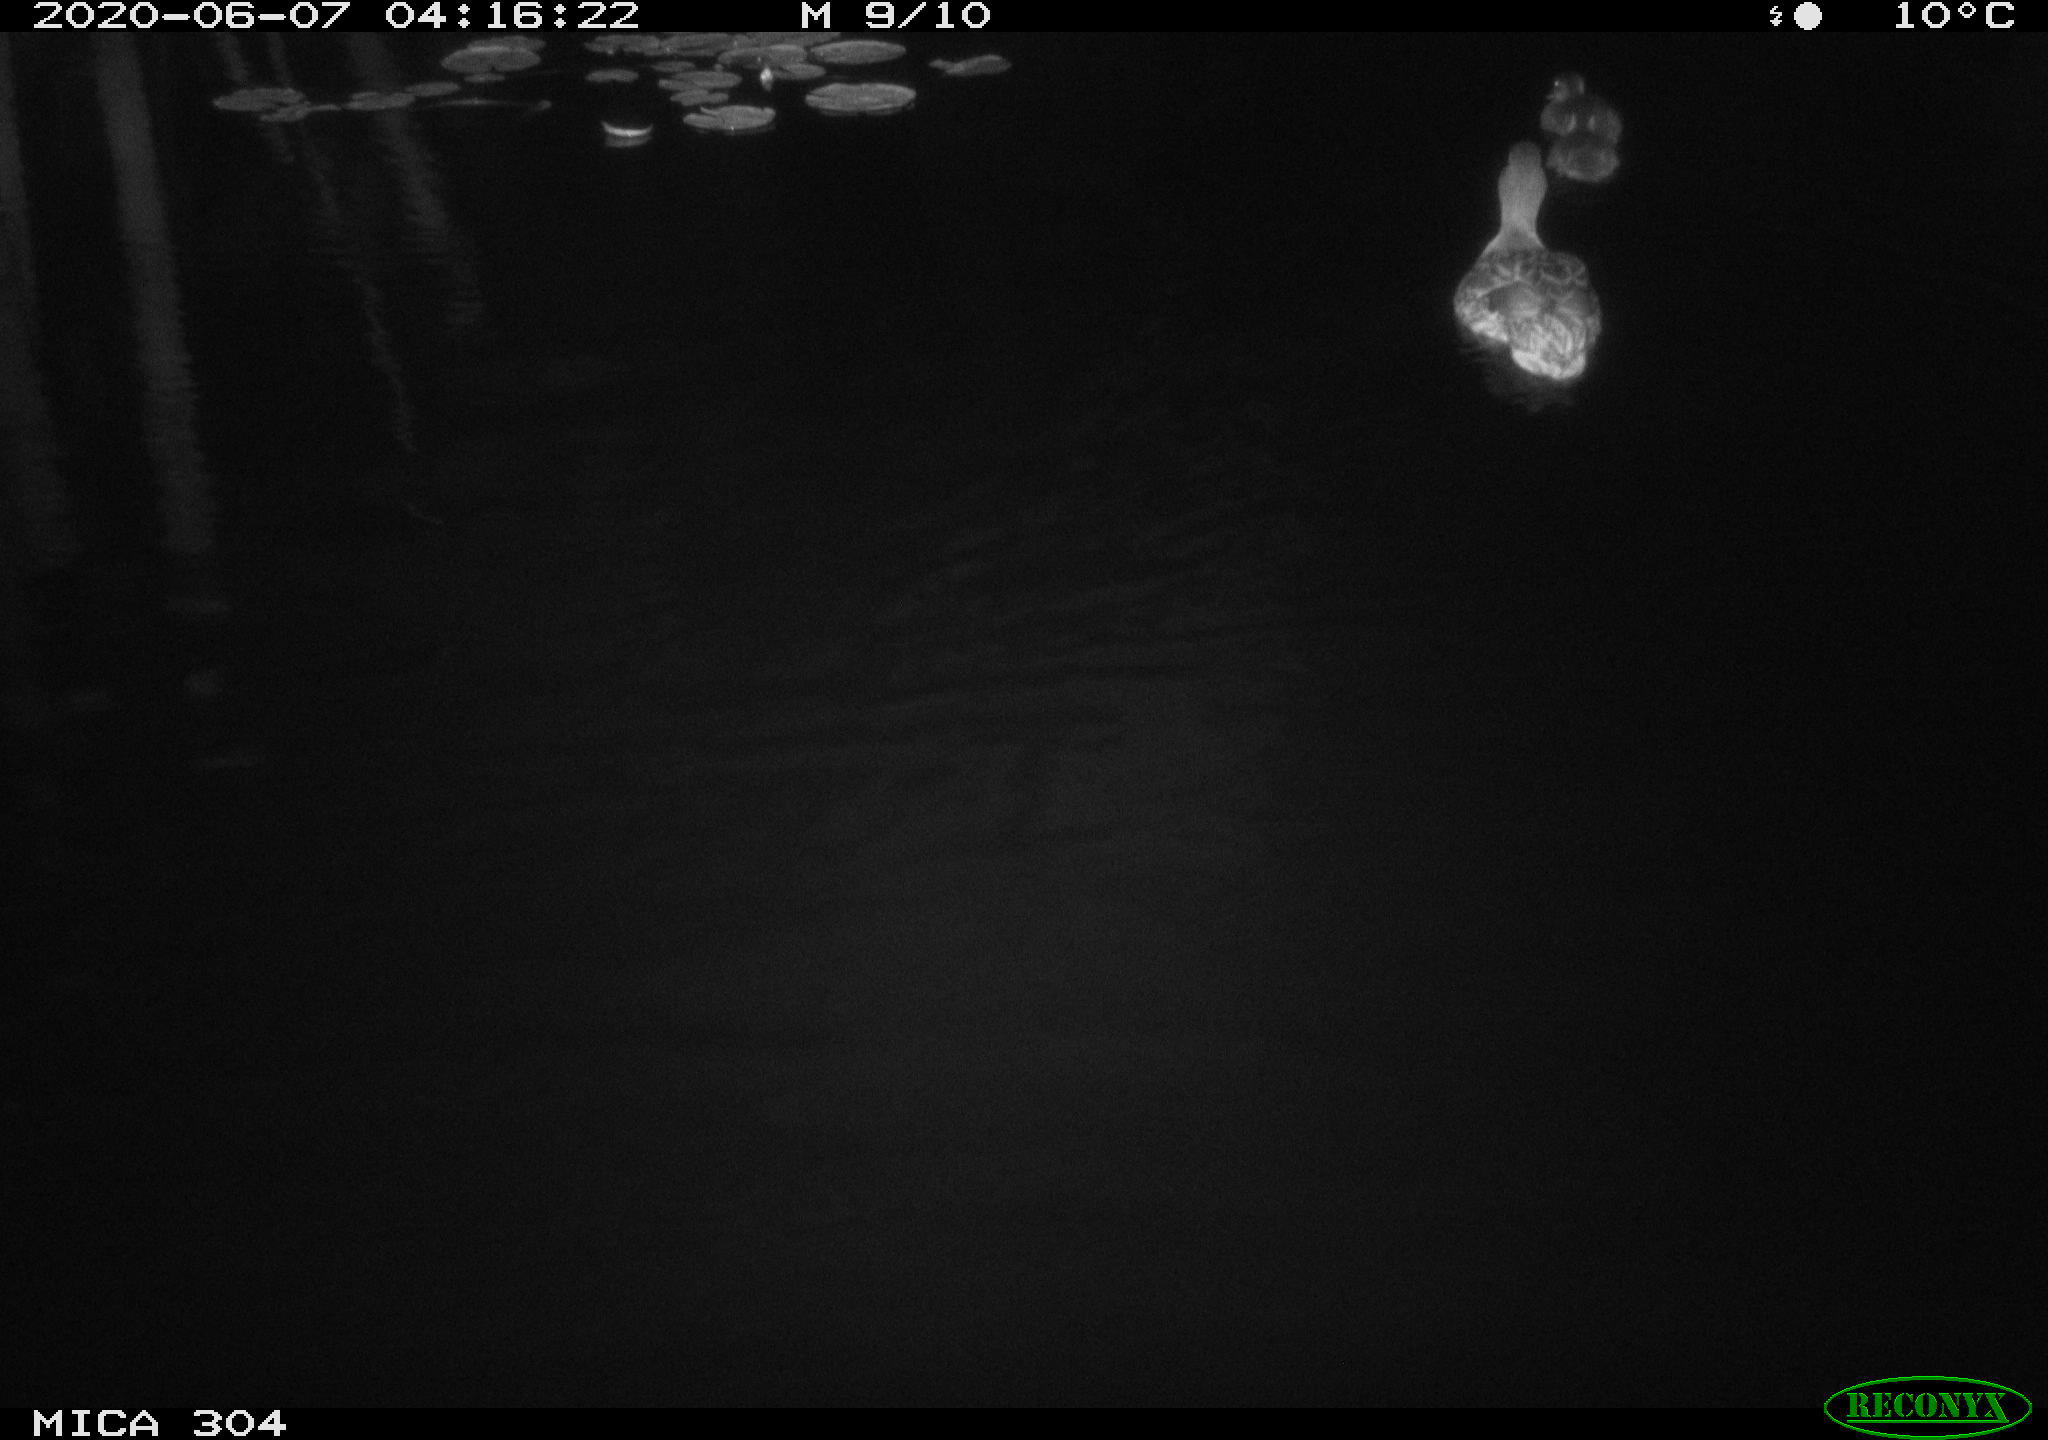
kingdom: Animalia
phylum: Chordata
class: Aves
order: Anseriformes
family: Anatidae
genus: Anas
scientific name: Anas platyrhynchos
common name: Mallard
